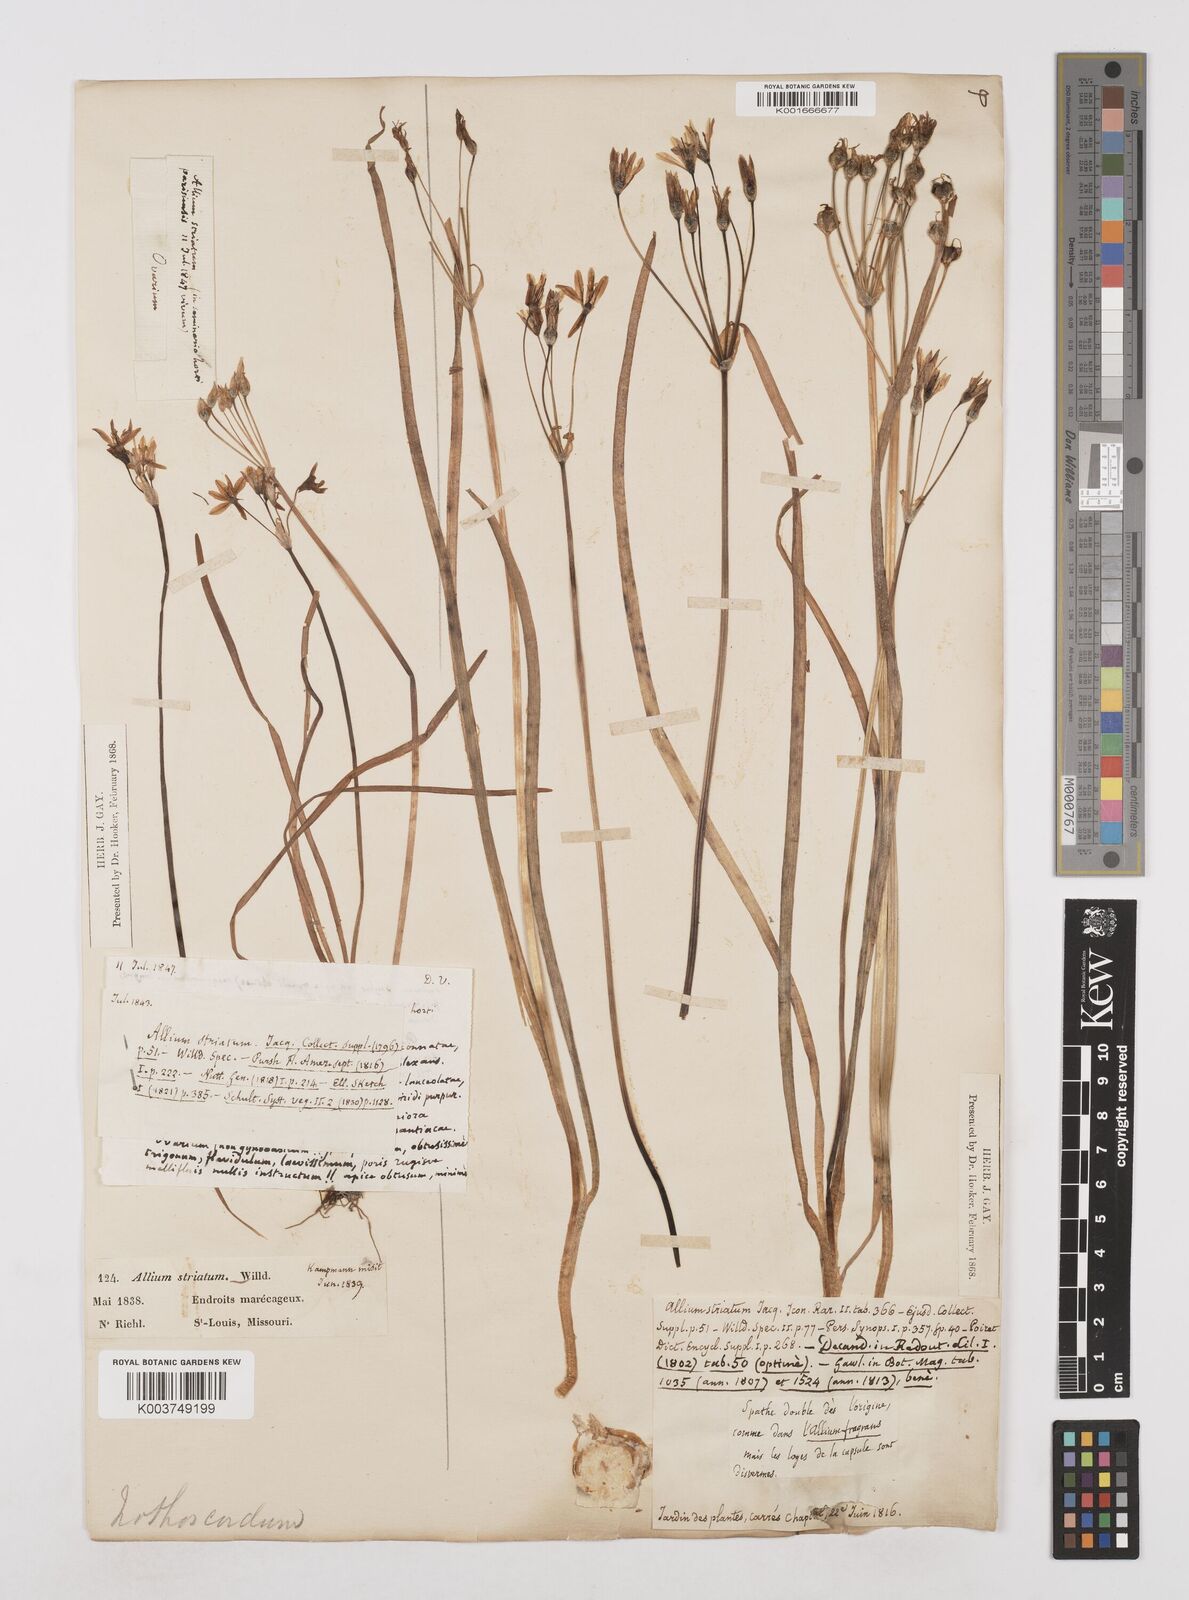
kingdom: Plantae
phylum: Tracheophyta
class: Liliopsida
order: Asparagales
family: Amaryllidaceae
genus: Nothoscordum
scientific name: Nothoscordum bivalve
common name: Crow-poison
